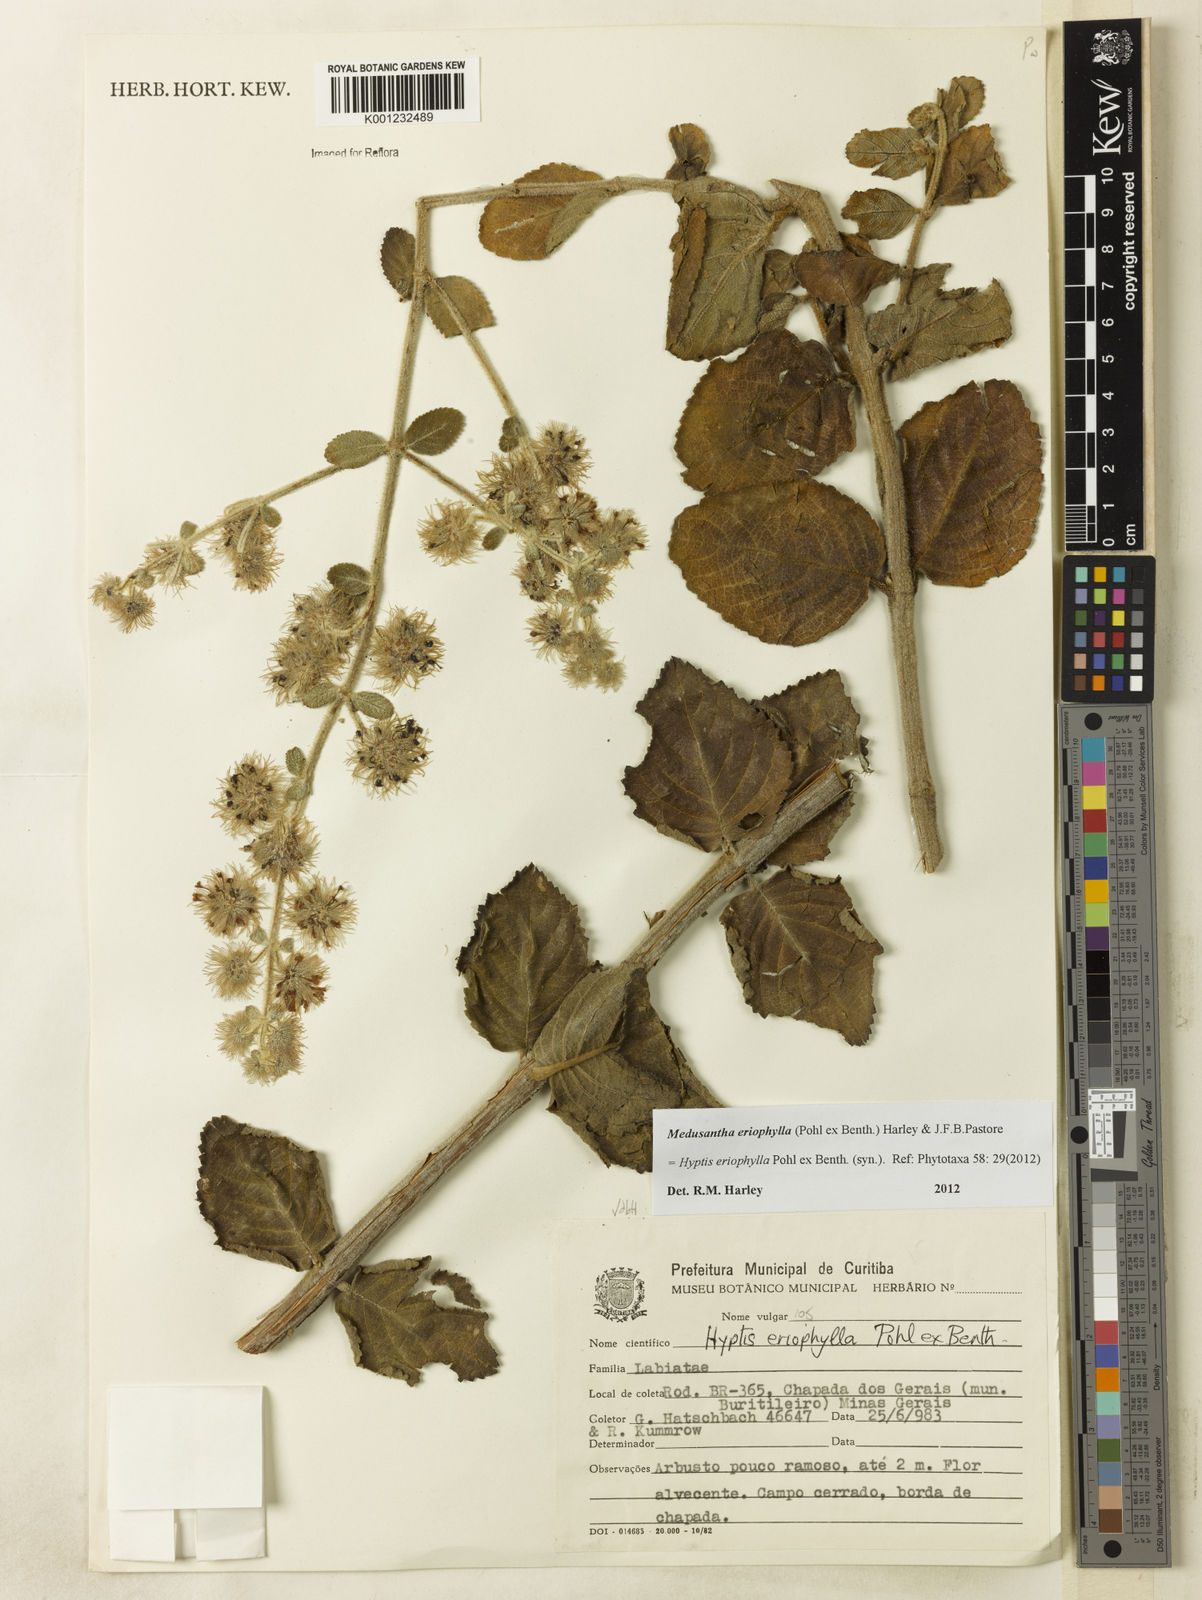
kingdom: Plantae
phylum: Tracheophyta
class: Magnoliopsida
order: Lamiales
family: Lamiaceae
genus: Medusantha
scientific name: Medusantha eriophylla
